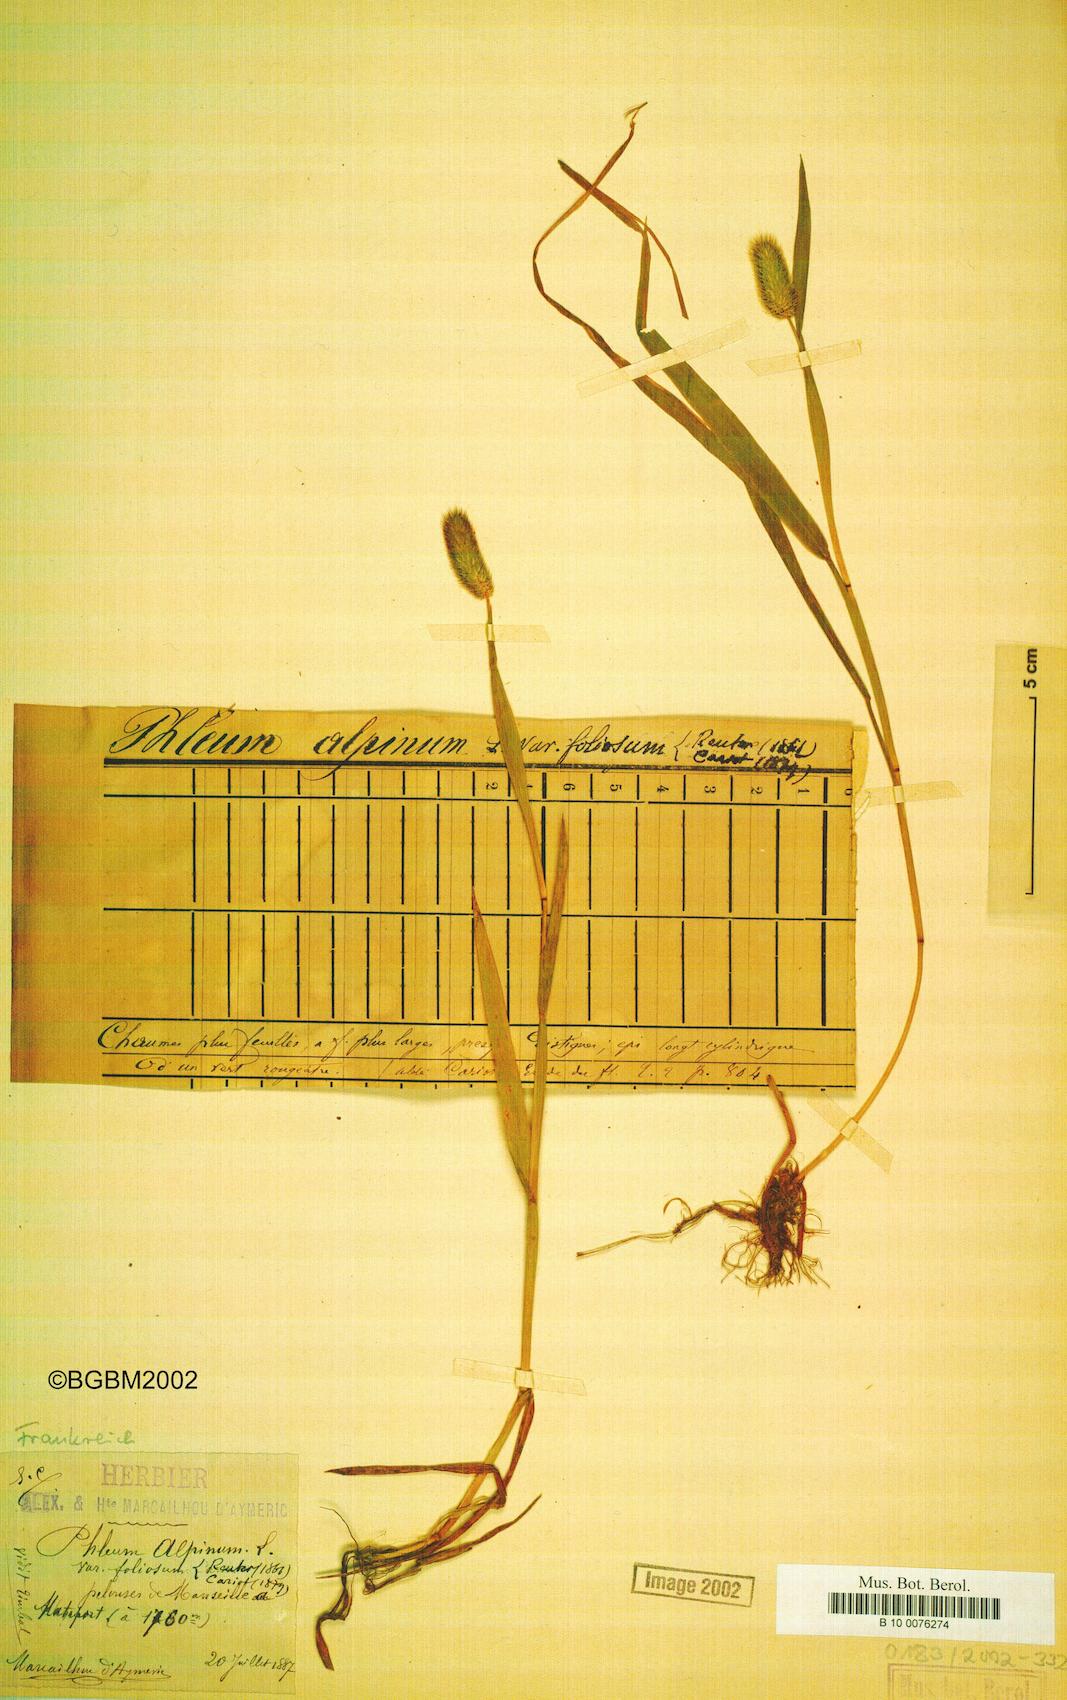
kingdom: Plantae
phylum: Tracheophyta
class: Liliopsida
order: Poales
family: Poaceae
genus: Phleum
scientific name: Phleum alpinum
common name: Alpine cat's-tail
